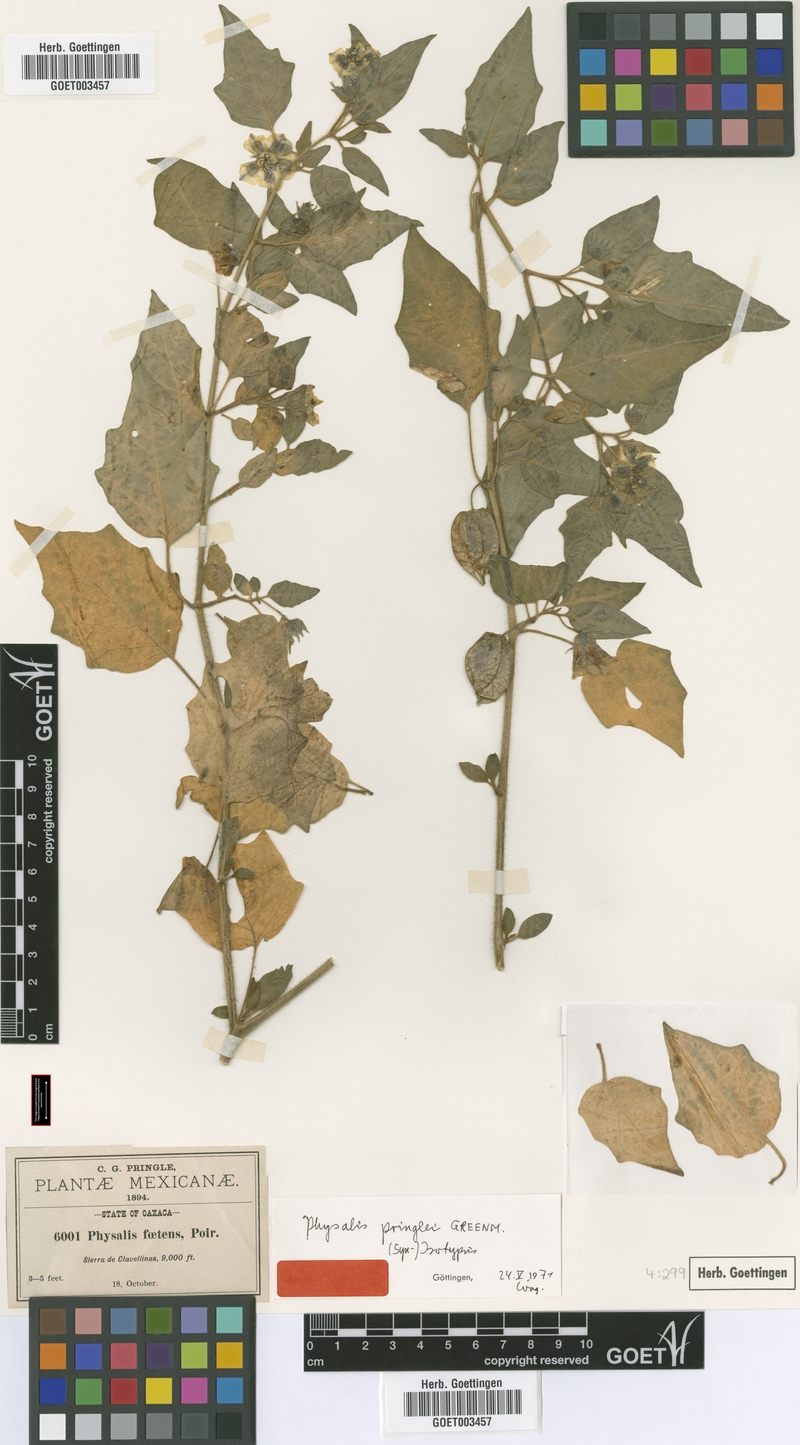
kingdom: Plantae
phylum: Tracheophyta
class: Magnoliopsida
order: Solanales
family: Solanaceae
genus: Physalis
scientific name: Physalis pringlei
